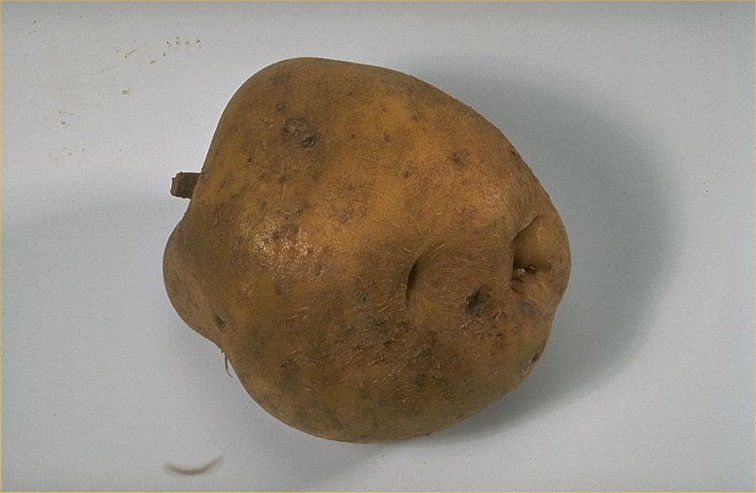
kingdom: Plantae
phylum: Tracheophyta
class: Magnoliopsida
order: Solanales
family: Solanaceae
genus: Solanum
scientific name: Solanum tuberosum
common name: Potato
